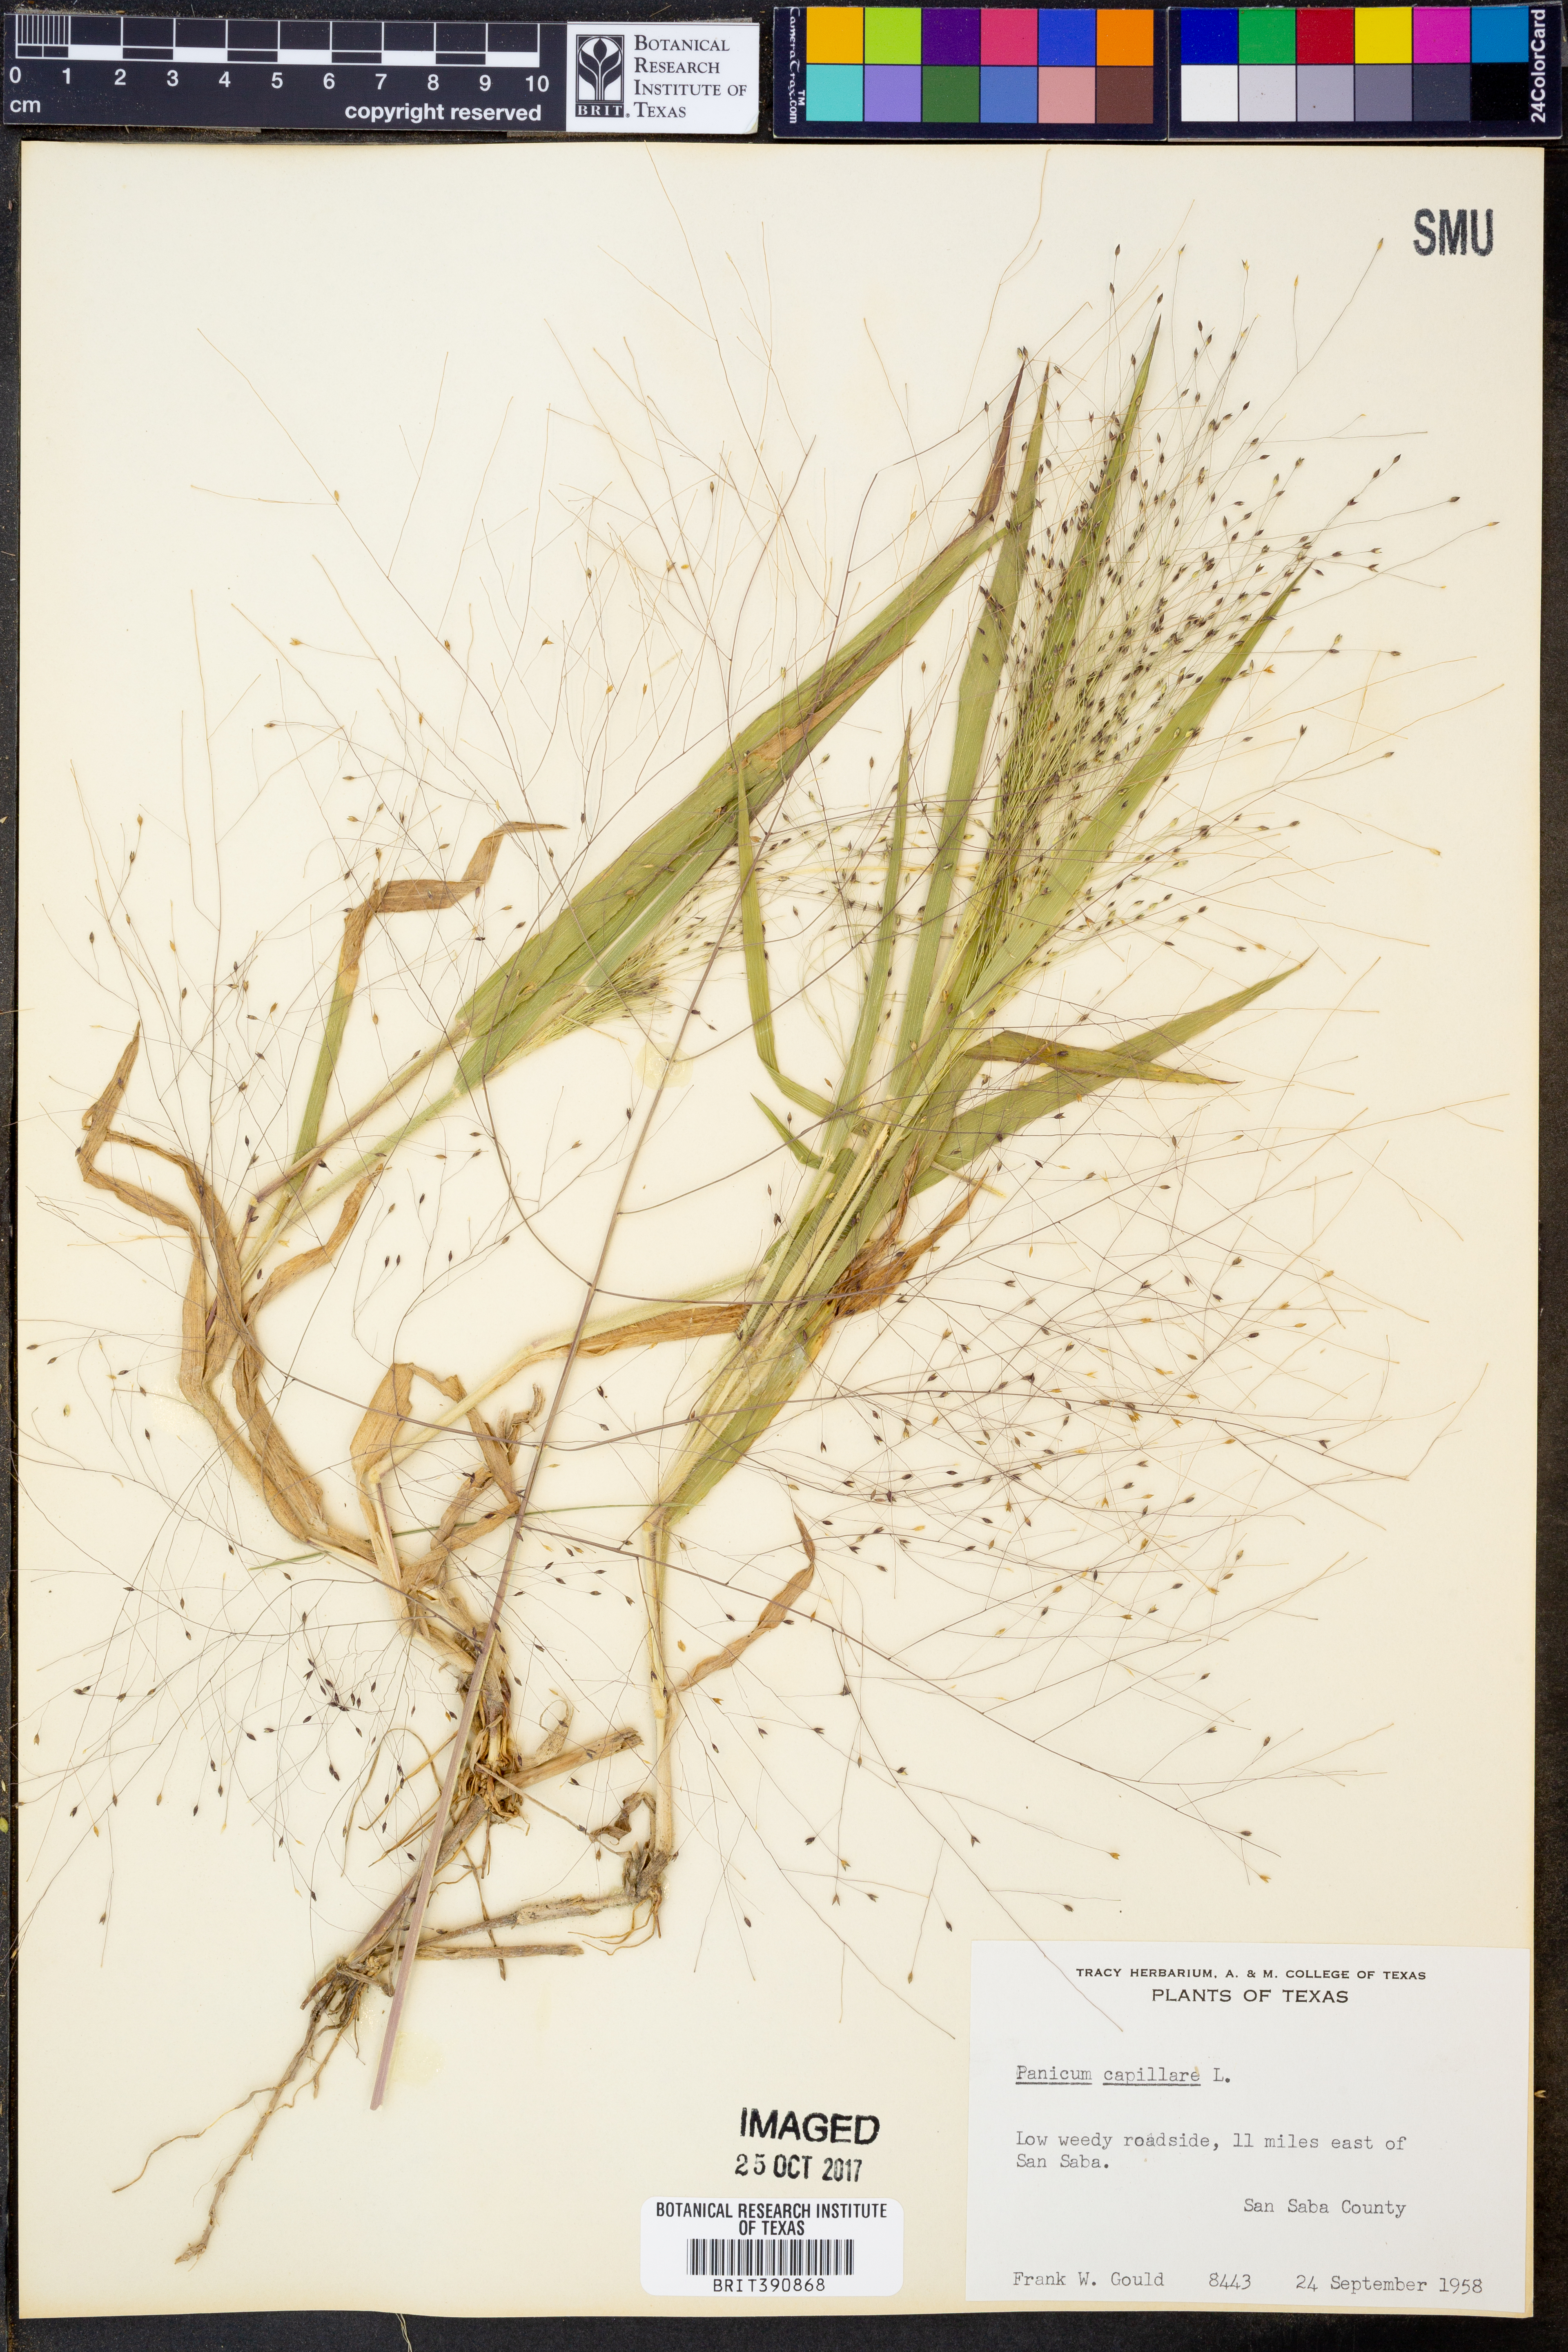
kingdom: Plantae
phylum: Tracheophyta
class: Liliopsida
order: Poales
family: Poaceae
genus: Panicum
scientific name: Panicum capillare
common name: Witch-grass
